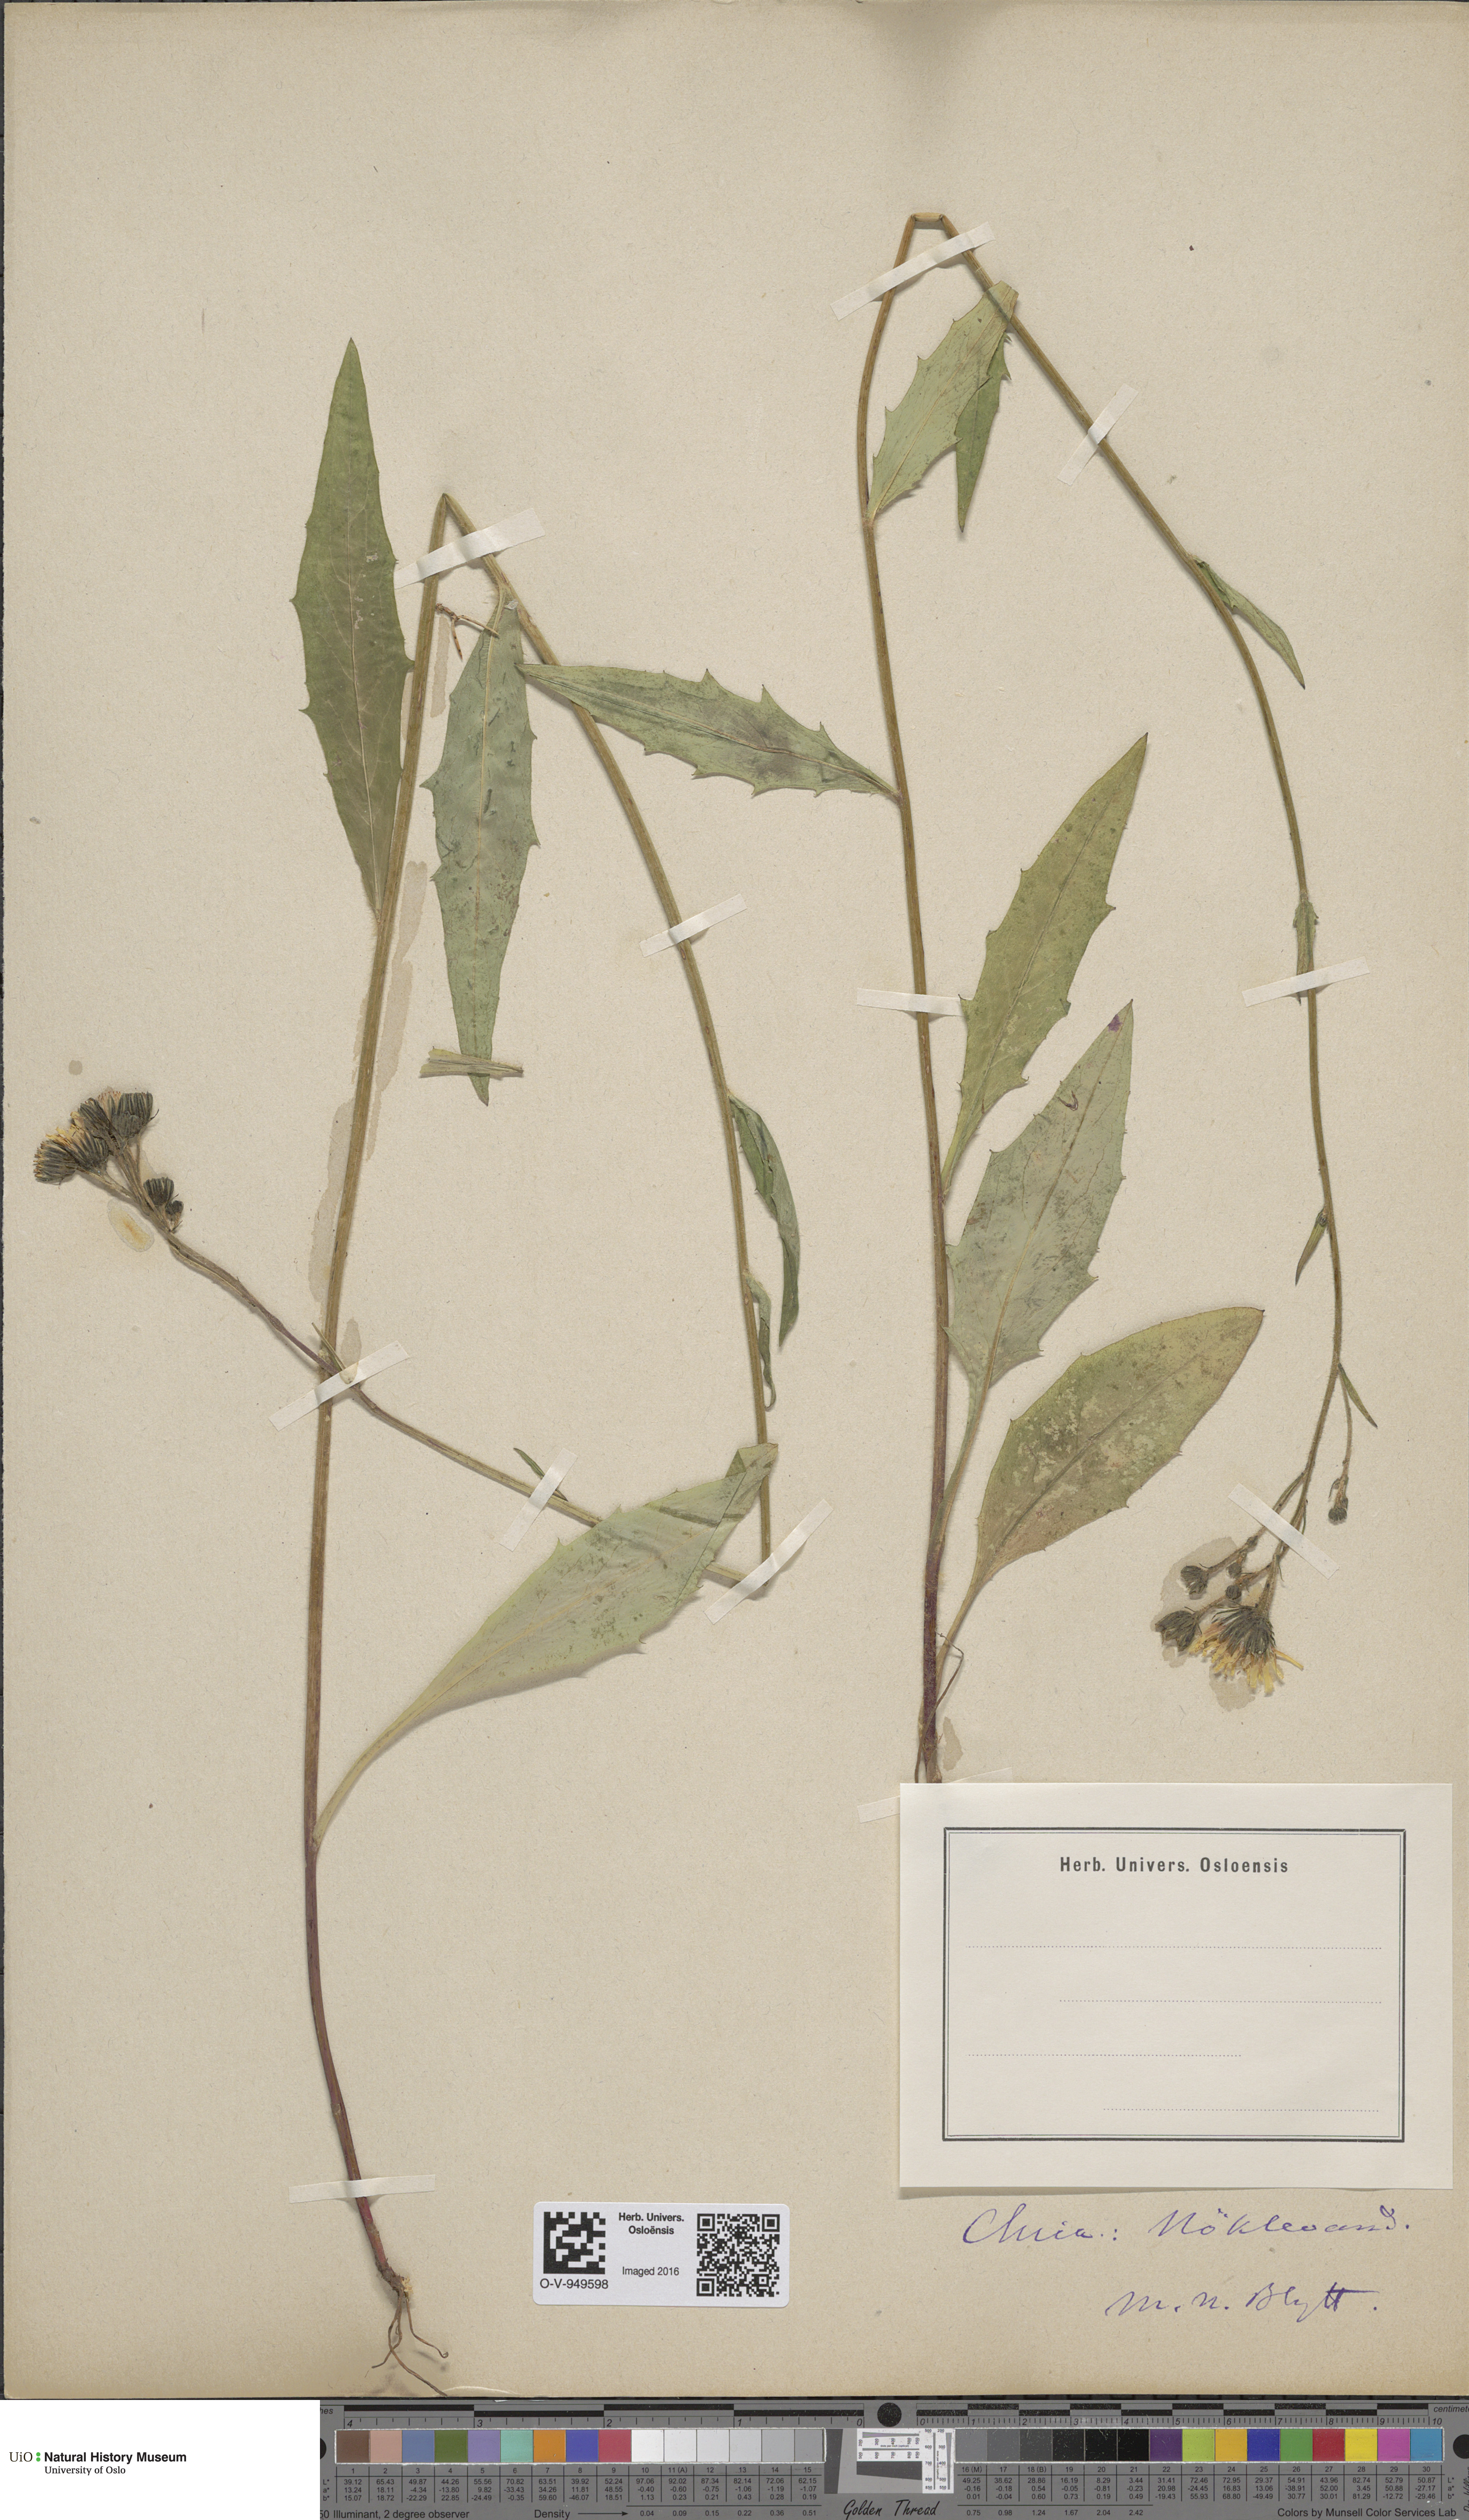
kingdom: Plantae
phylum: Tracheophyta
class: Magnoliopsida
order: Asterales
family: Asteraceae
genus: Hieracium
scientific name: Hieracium
